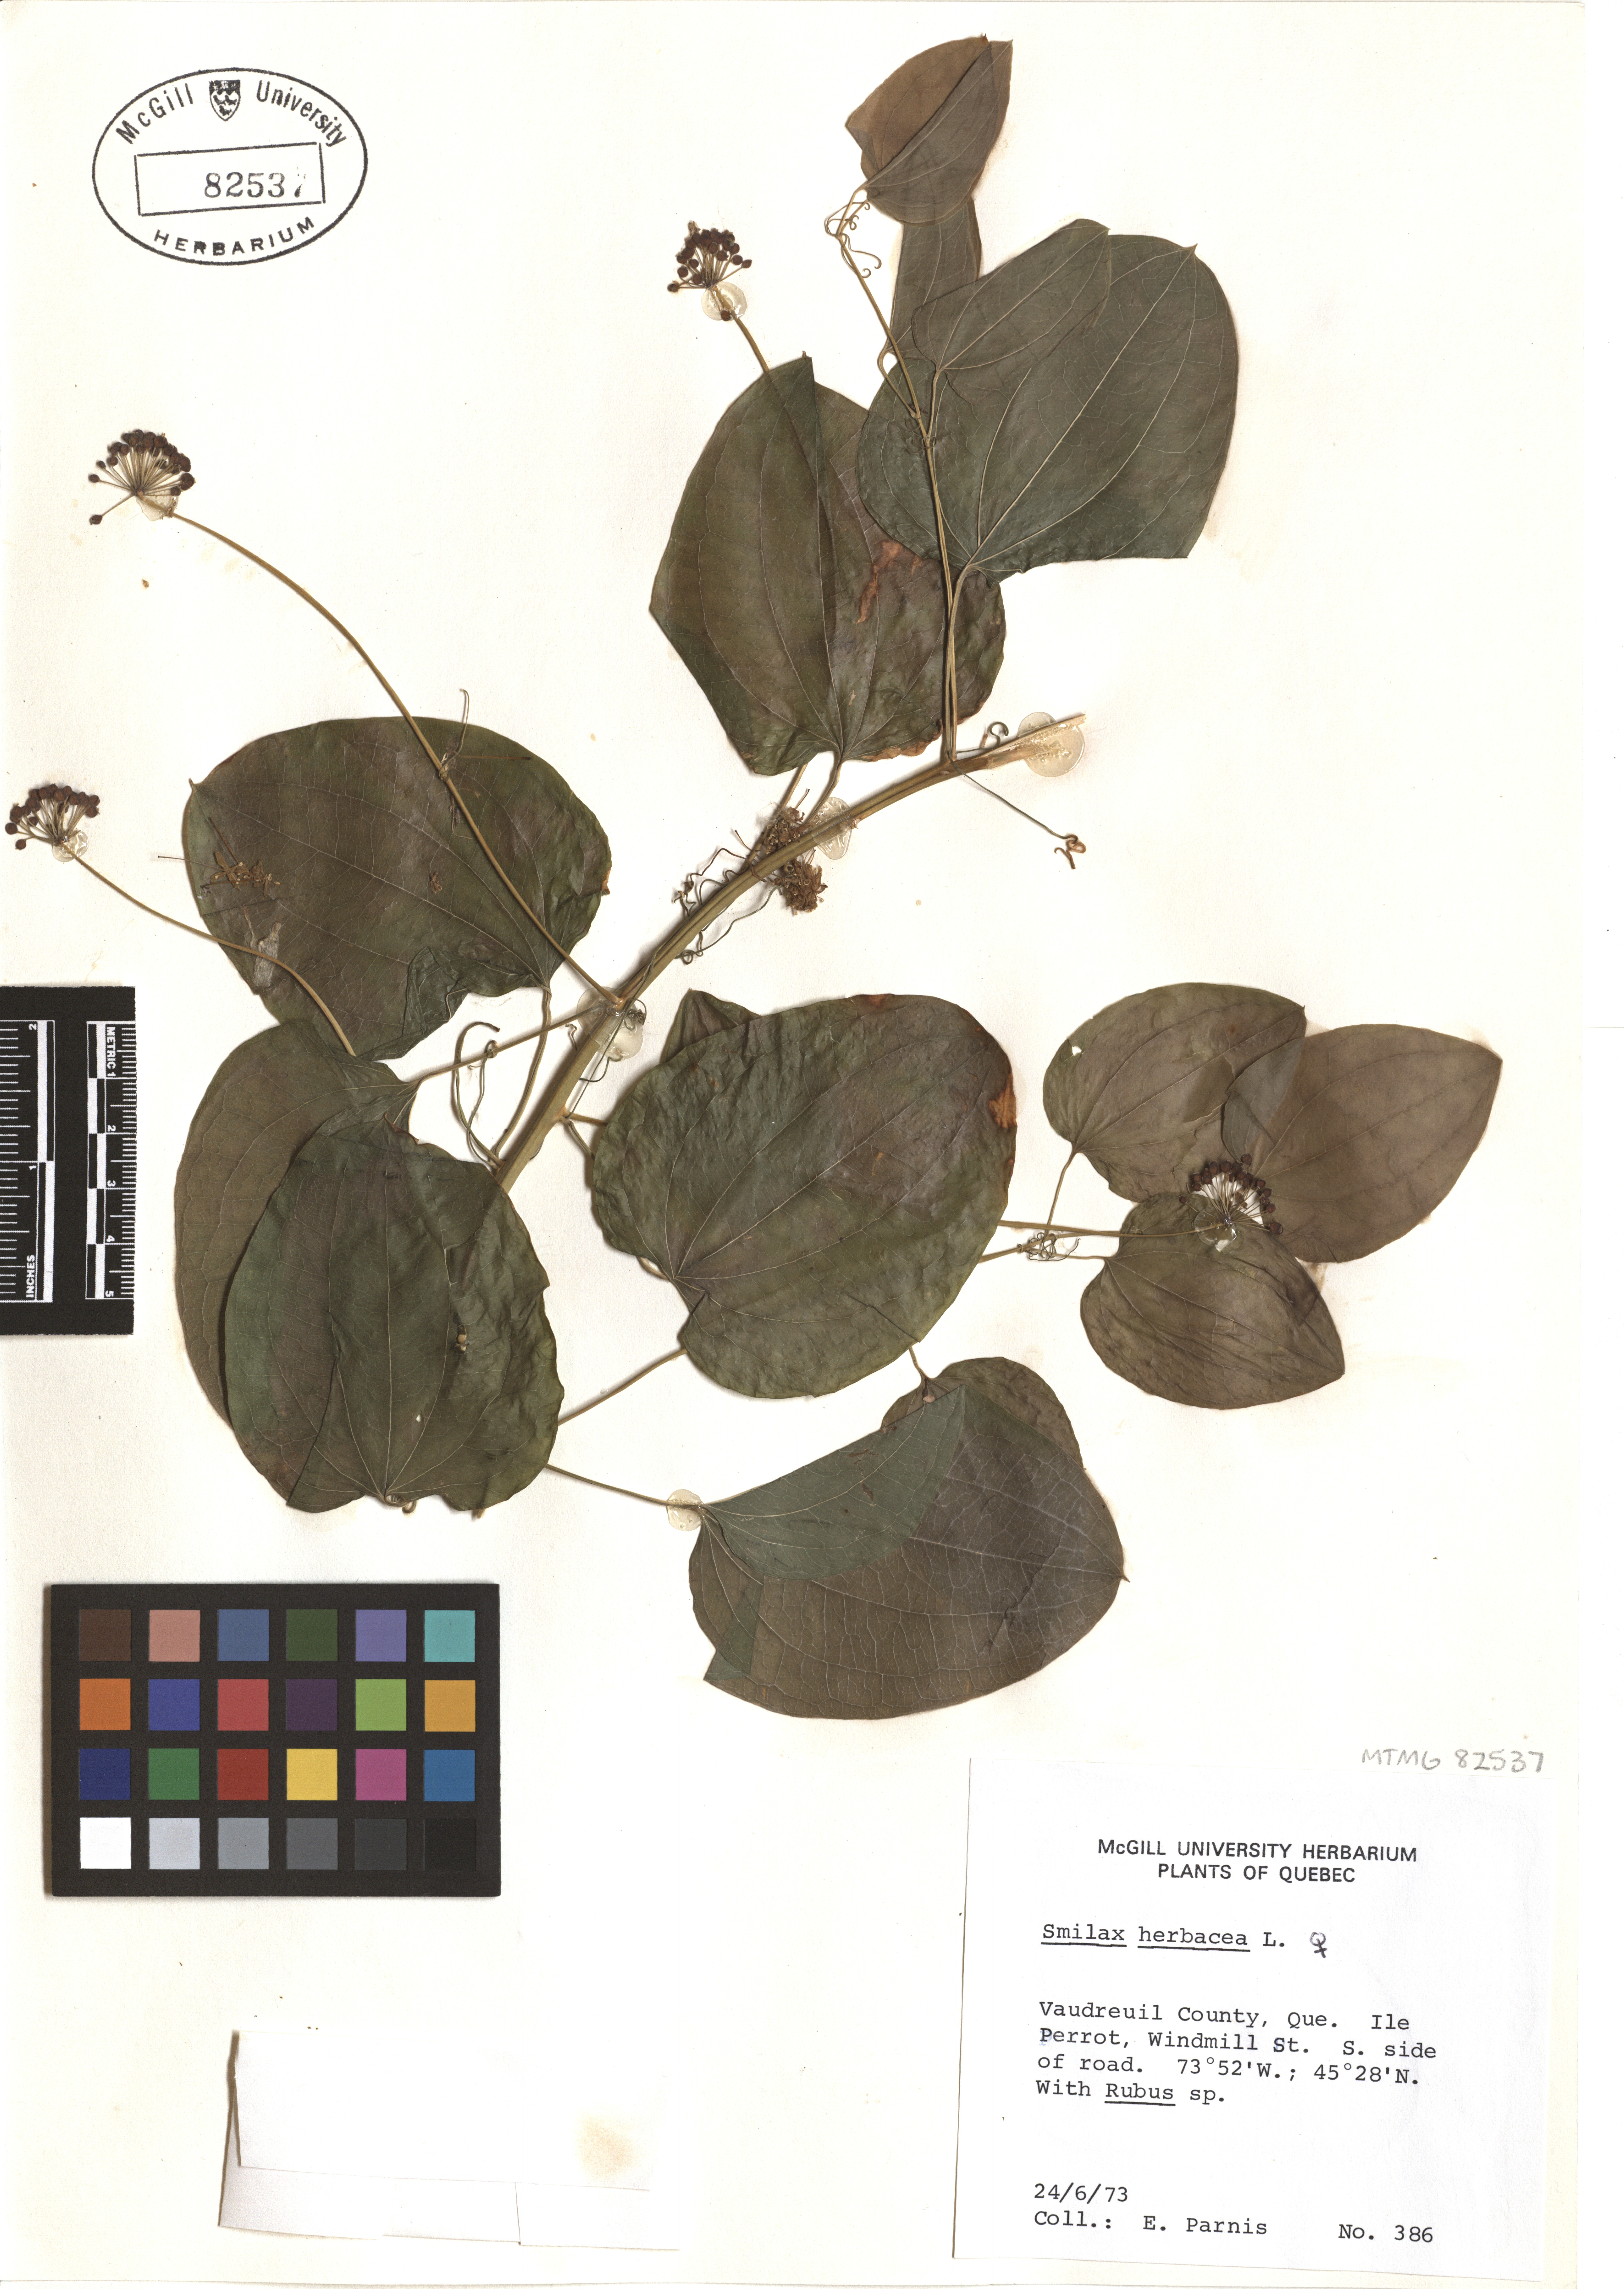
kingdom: Plantae
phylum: Tracheophyta
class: Liliopsida
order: Liliales
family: Smilacaceae
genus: Smilax
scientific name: Smilax herbacea
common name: Jacob's-ladder
